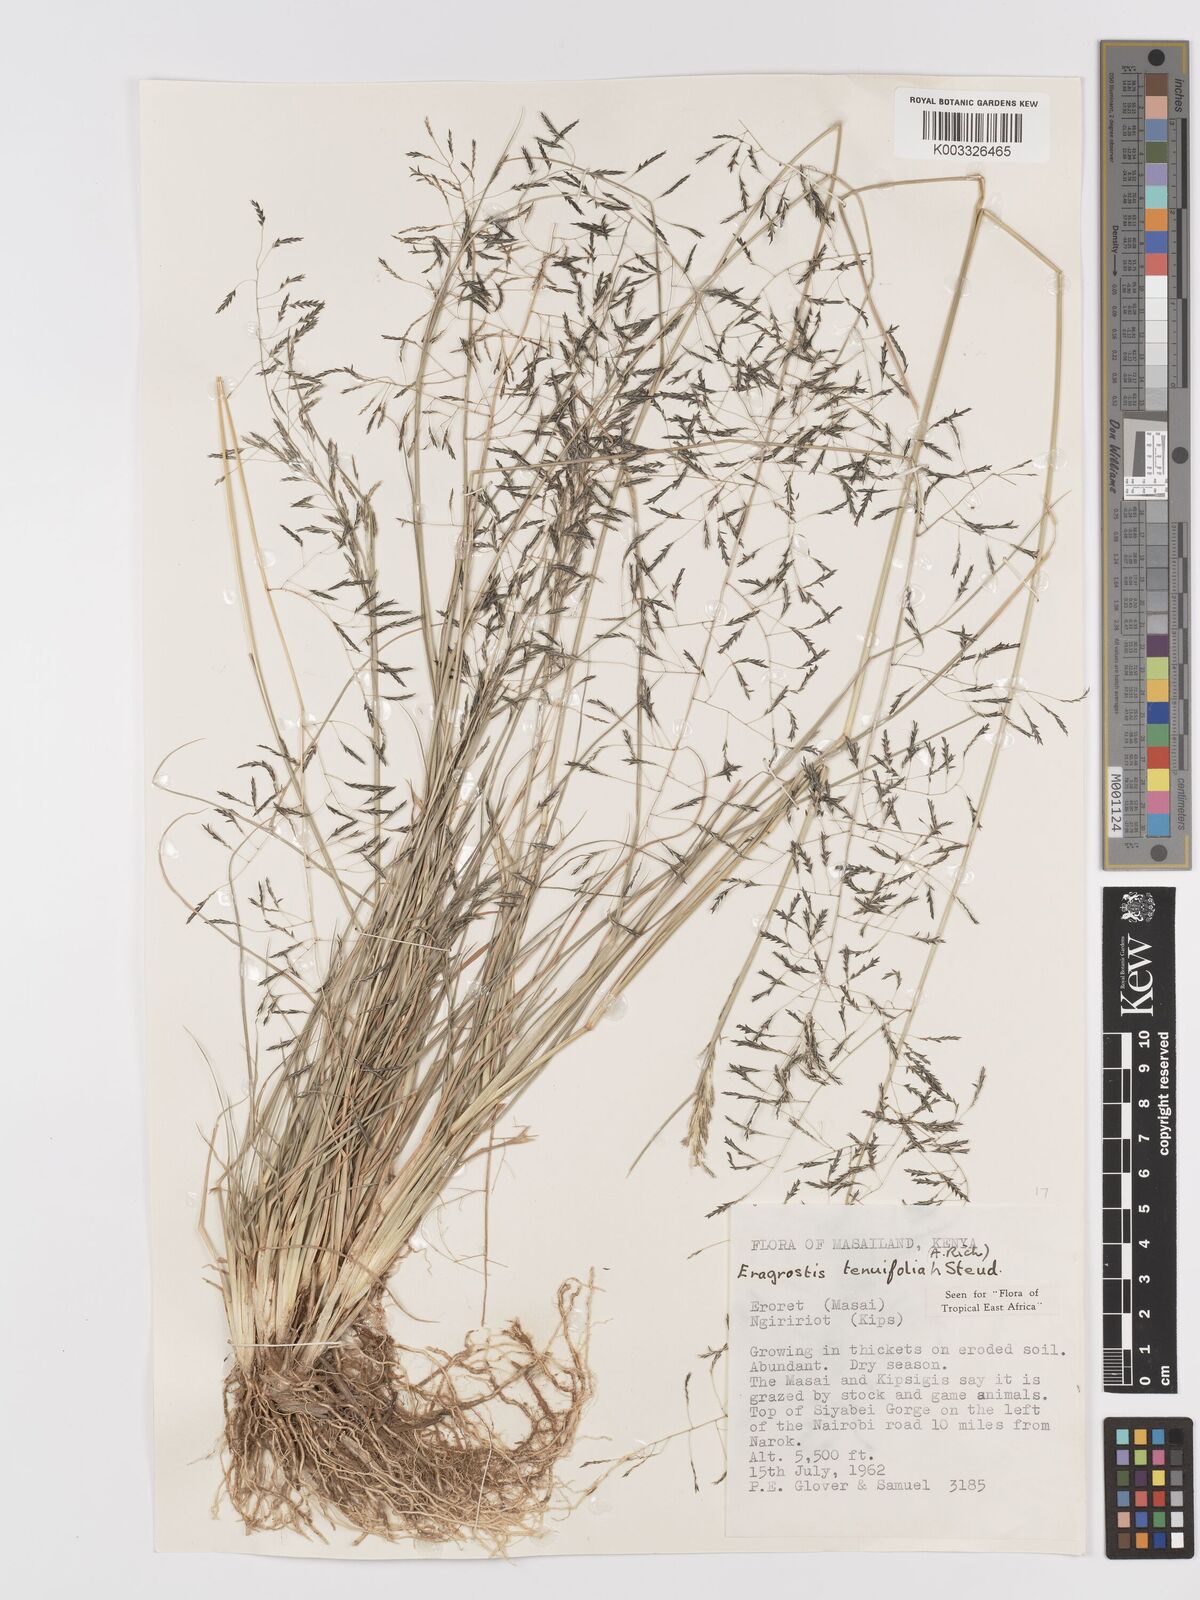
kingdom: Plantae
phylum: Tracheophyta
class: Liliopsida
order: Poales
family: Poaceae
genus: Eragrostis
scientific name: Eragrostis tenuifolia
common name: Elastic grass
